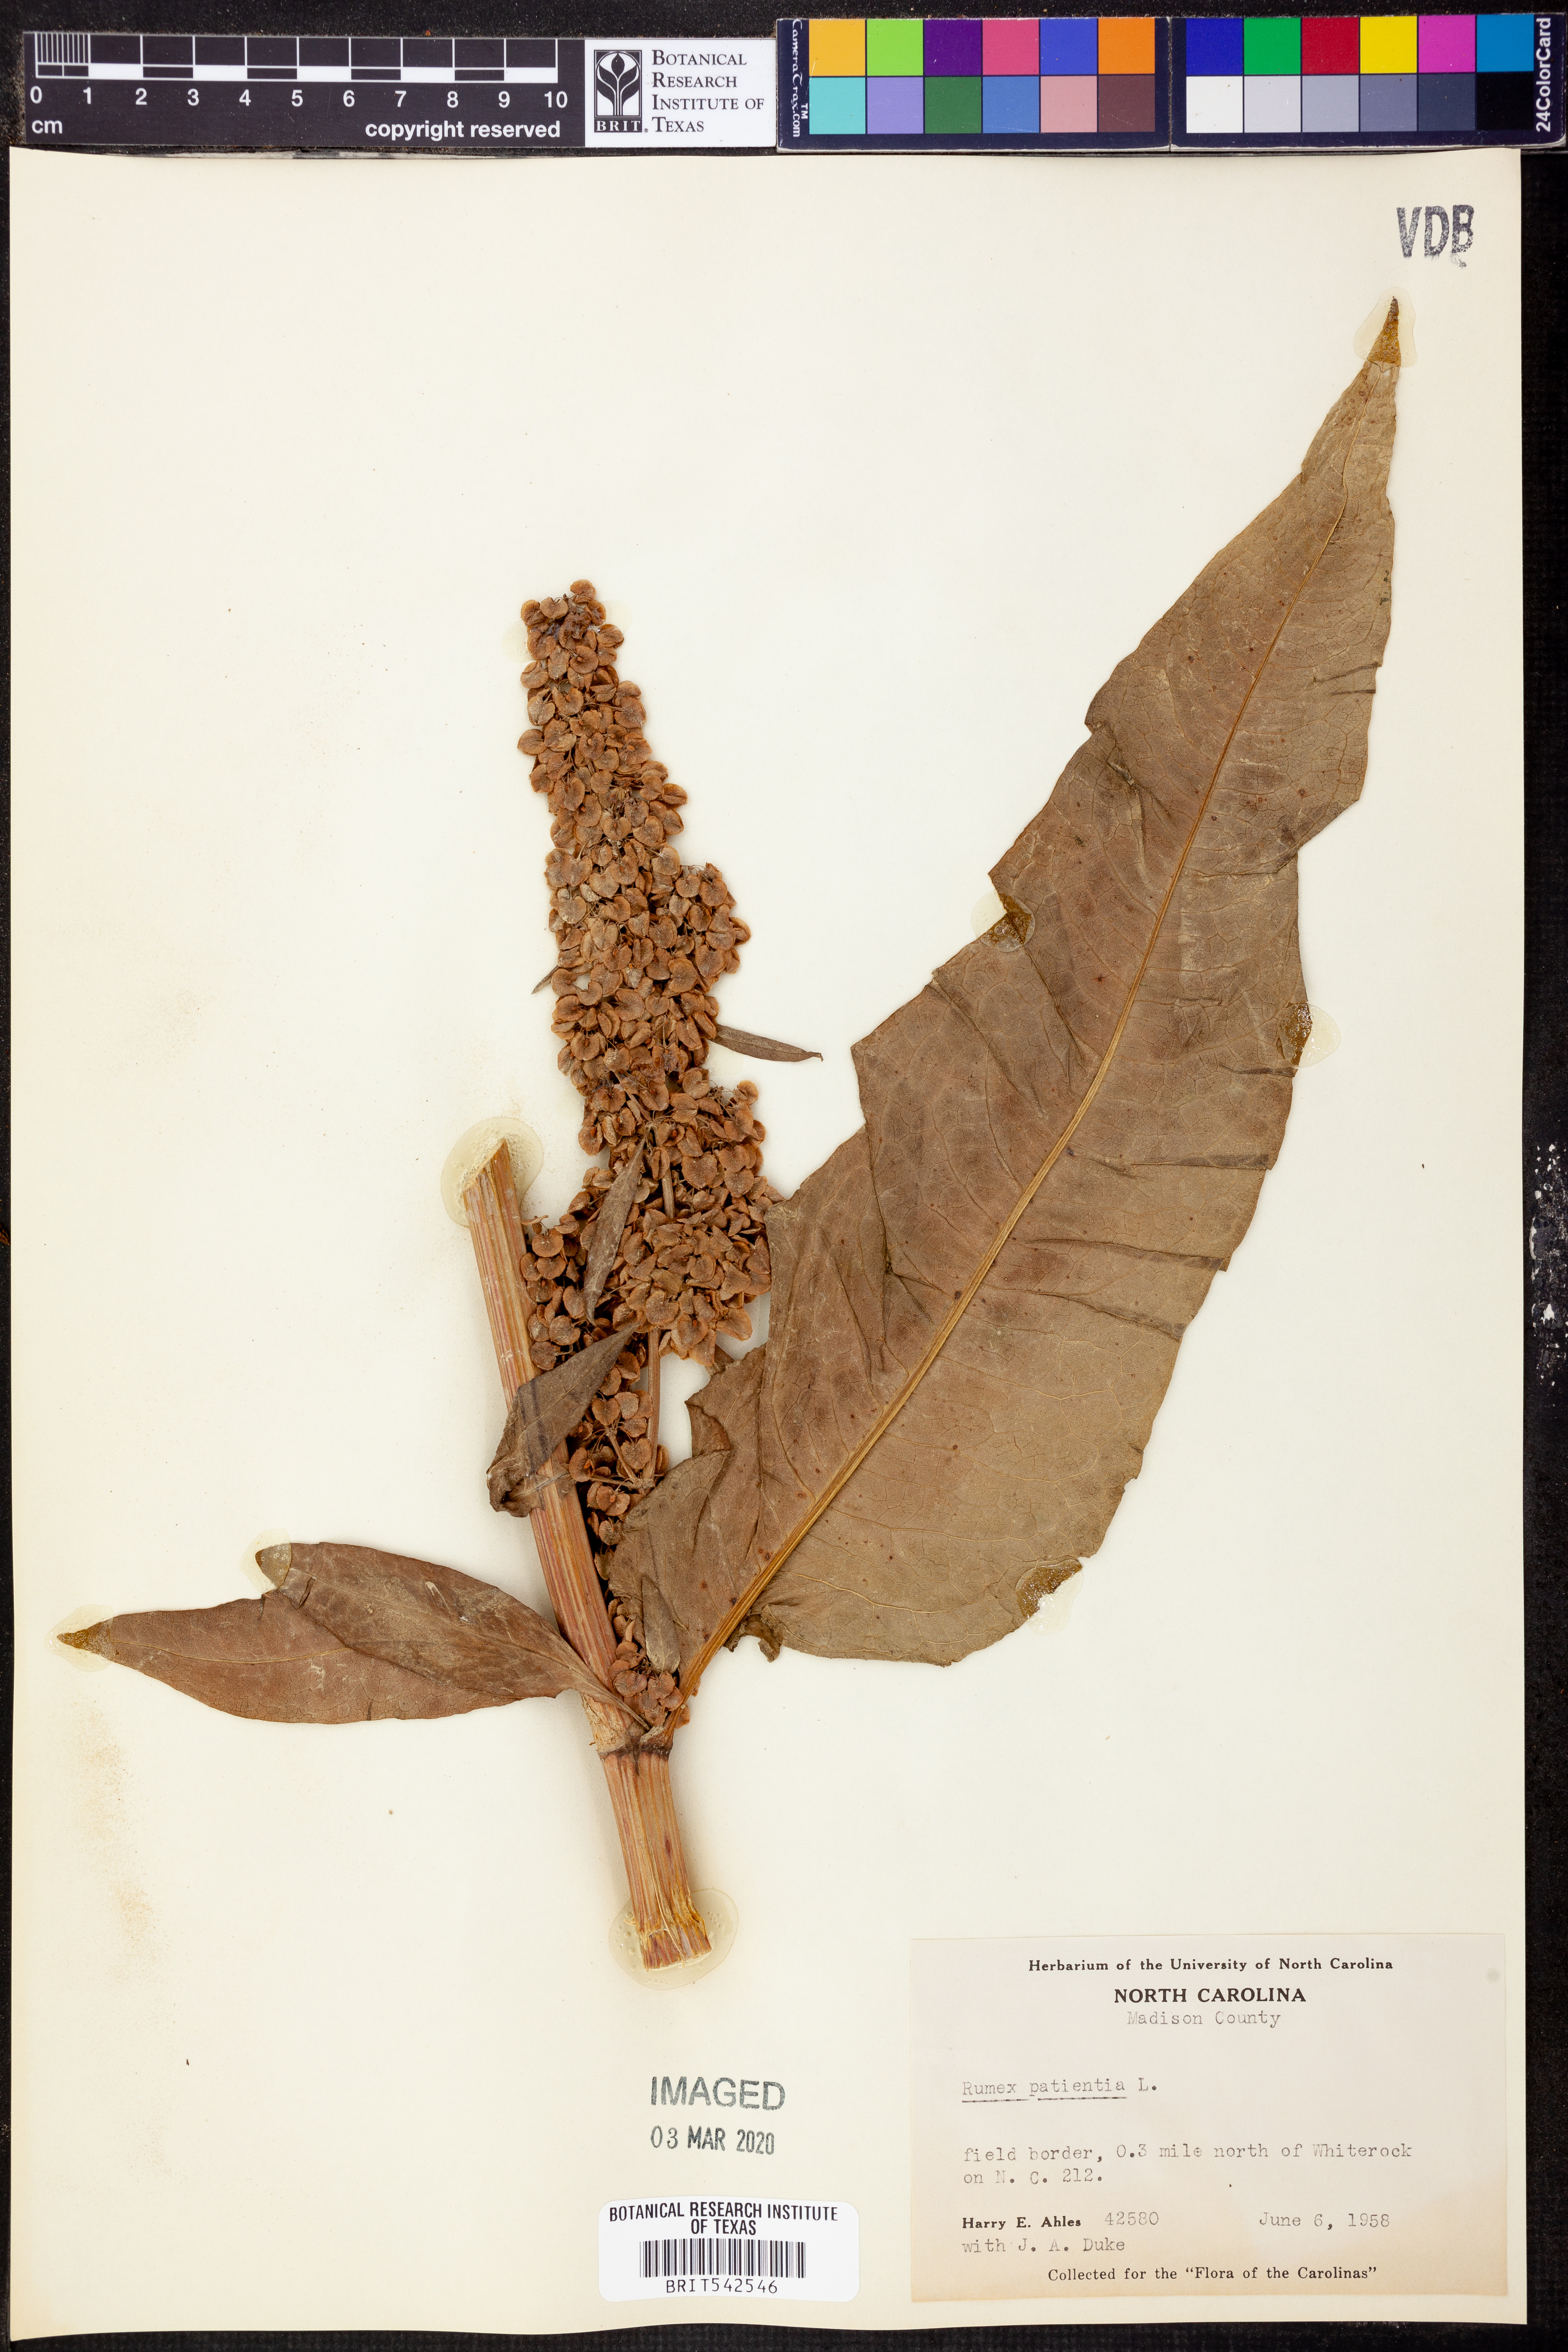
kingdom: Plantae
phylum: Tracheophyta
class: Magnoliopsida
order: Caryophyllales
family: Polygonaceae
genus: Rumex
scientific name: Rumex patientia
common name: Patience dock
